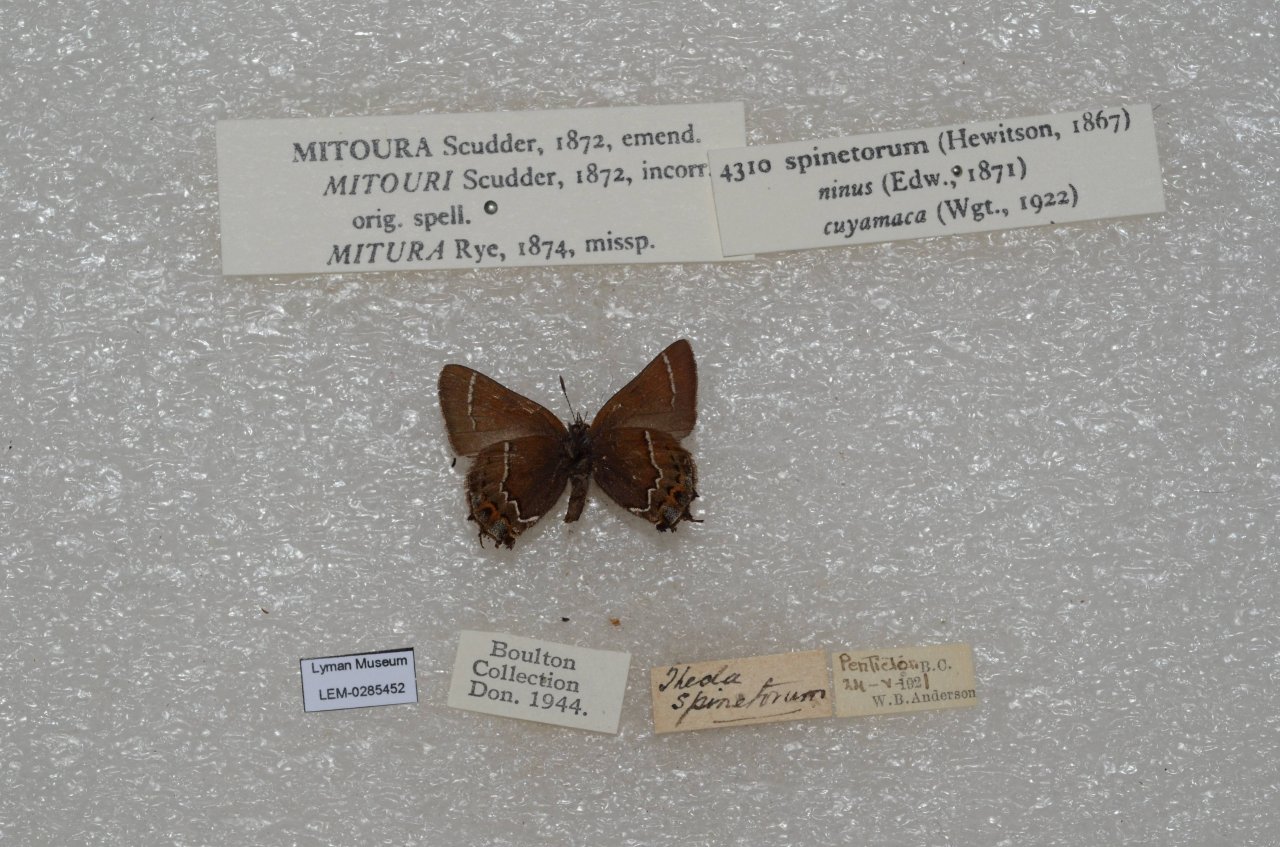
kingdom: Animalia
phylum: Arthropoda
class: Insecta
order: Lepidoptera
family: Lycaenidae
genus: Mitoura
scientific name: Mitoura spinetorum
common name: Thicket Hairstreak
